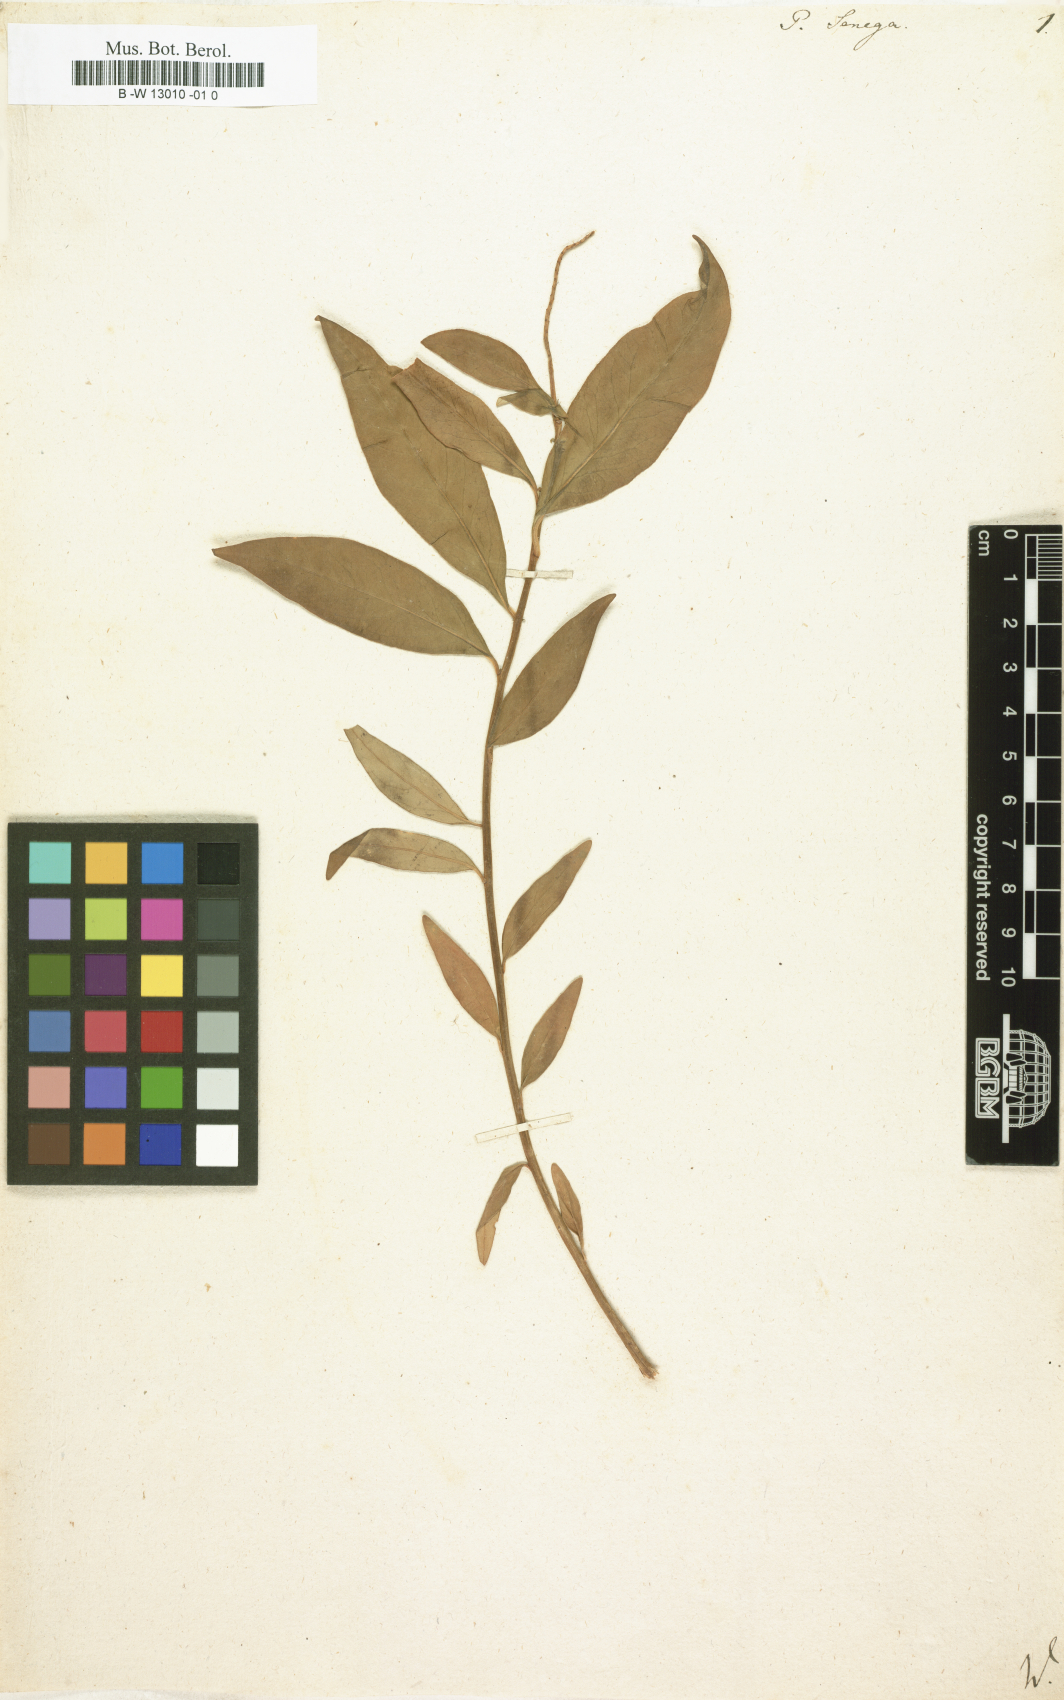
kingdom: Plantae
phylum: Tracheophyta
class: Magnoliopsida
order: Fabales
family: Polygalaceae
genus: Polygala
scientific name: Polygala senega
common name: Seneca snakeroot
